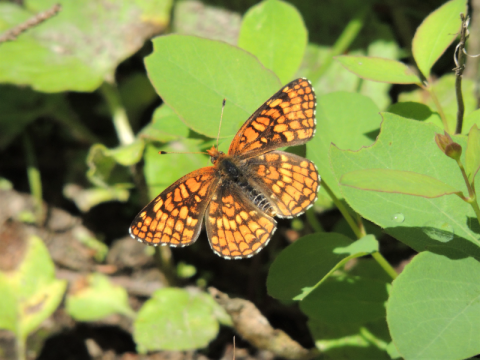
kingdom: Animalia
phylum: Arthropoda
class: Insecta
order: Lepidoptera
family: Nymphalidae
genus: Chlosyne
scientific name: Chlosyne palla
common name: Northern Checkerspot
